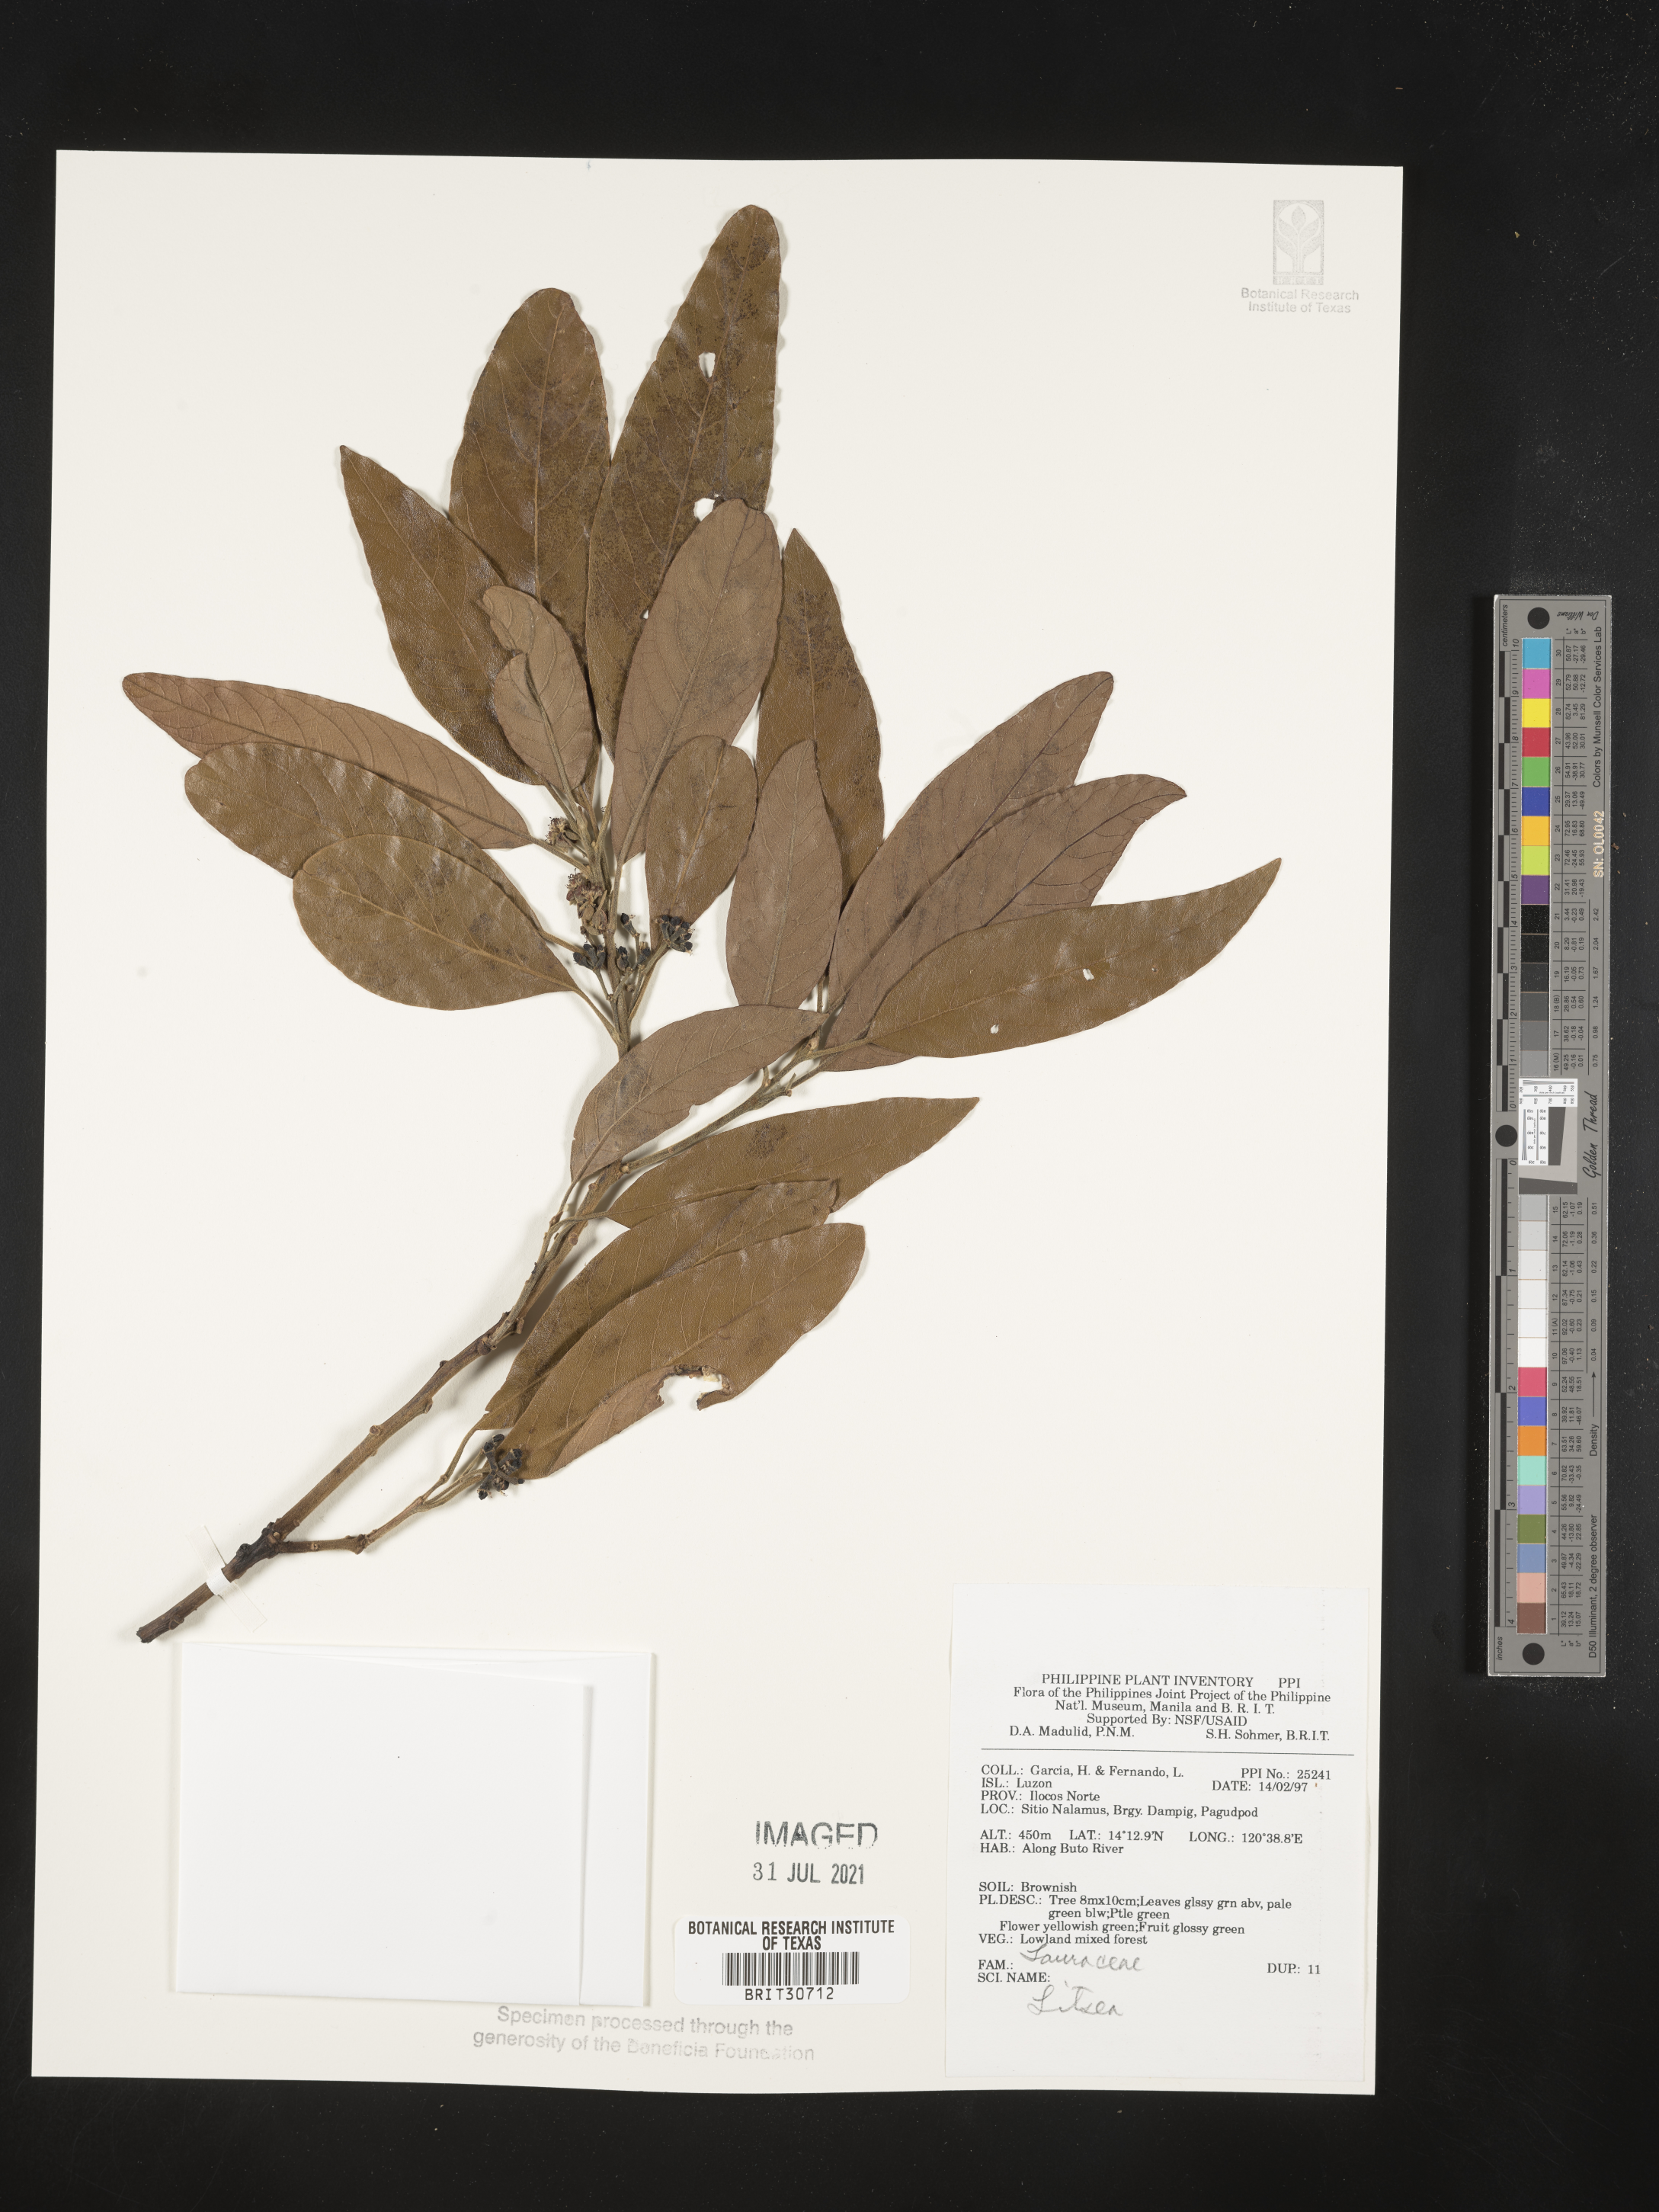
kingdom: Plantae
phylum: Tracheophyta
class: Magnoliopsida
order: Laurales
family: Lauraceae
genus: Litsea
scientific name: Litsea
